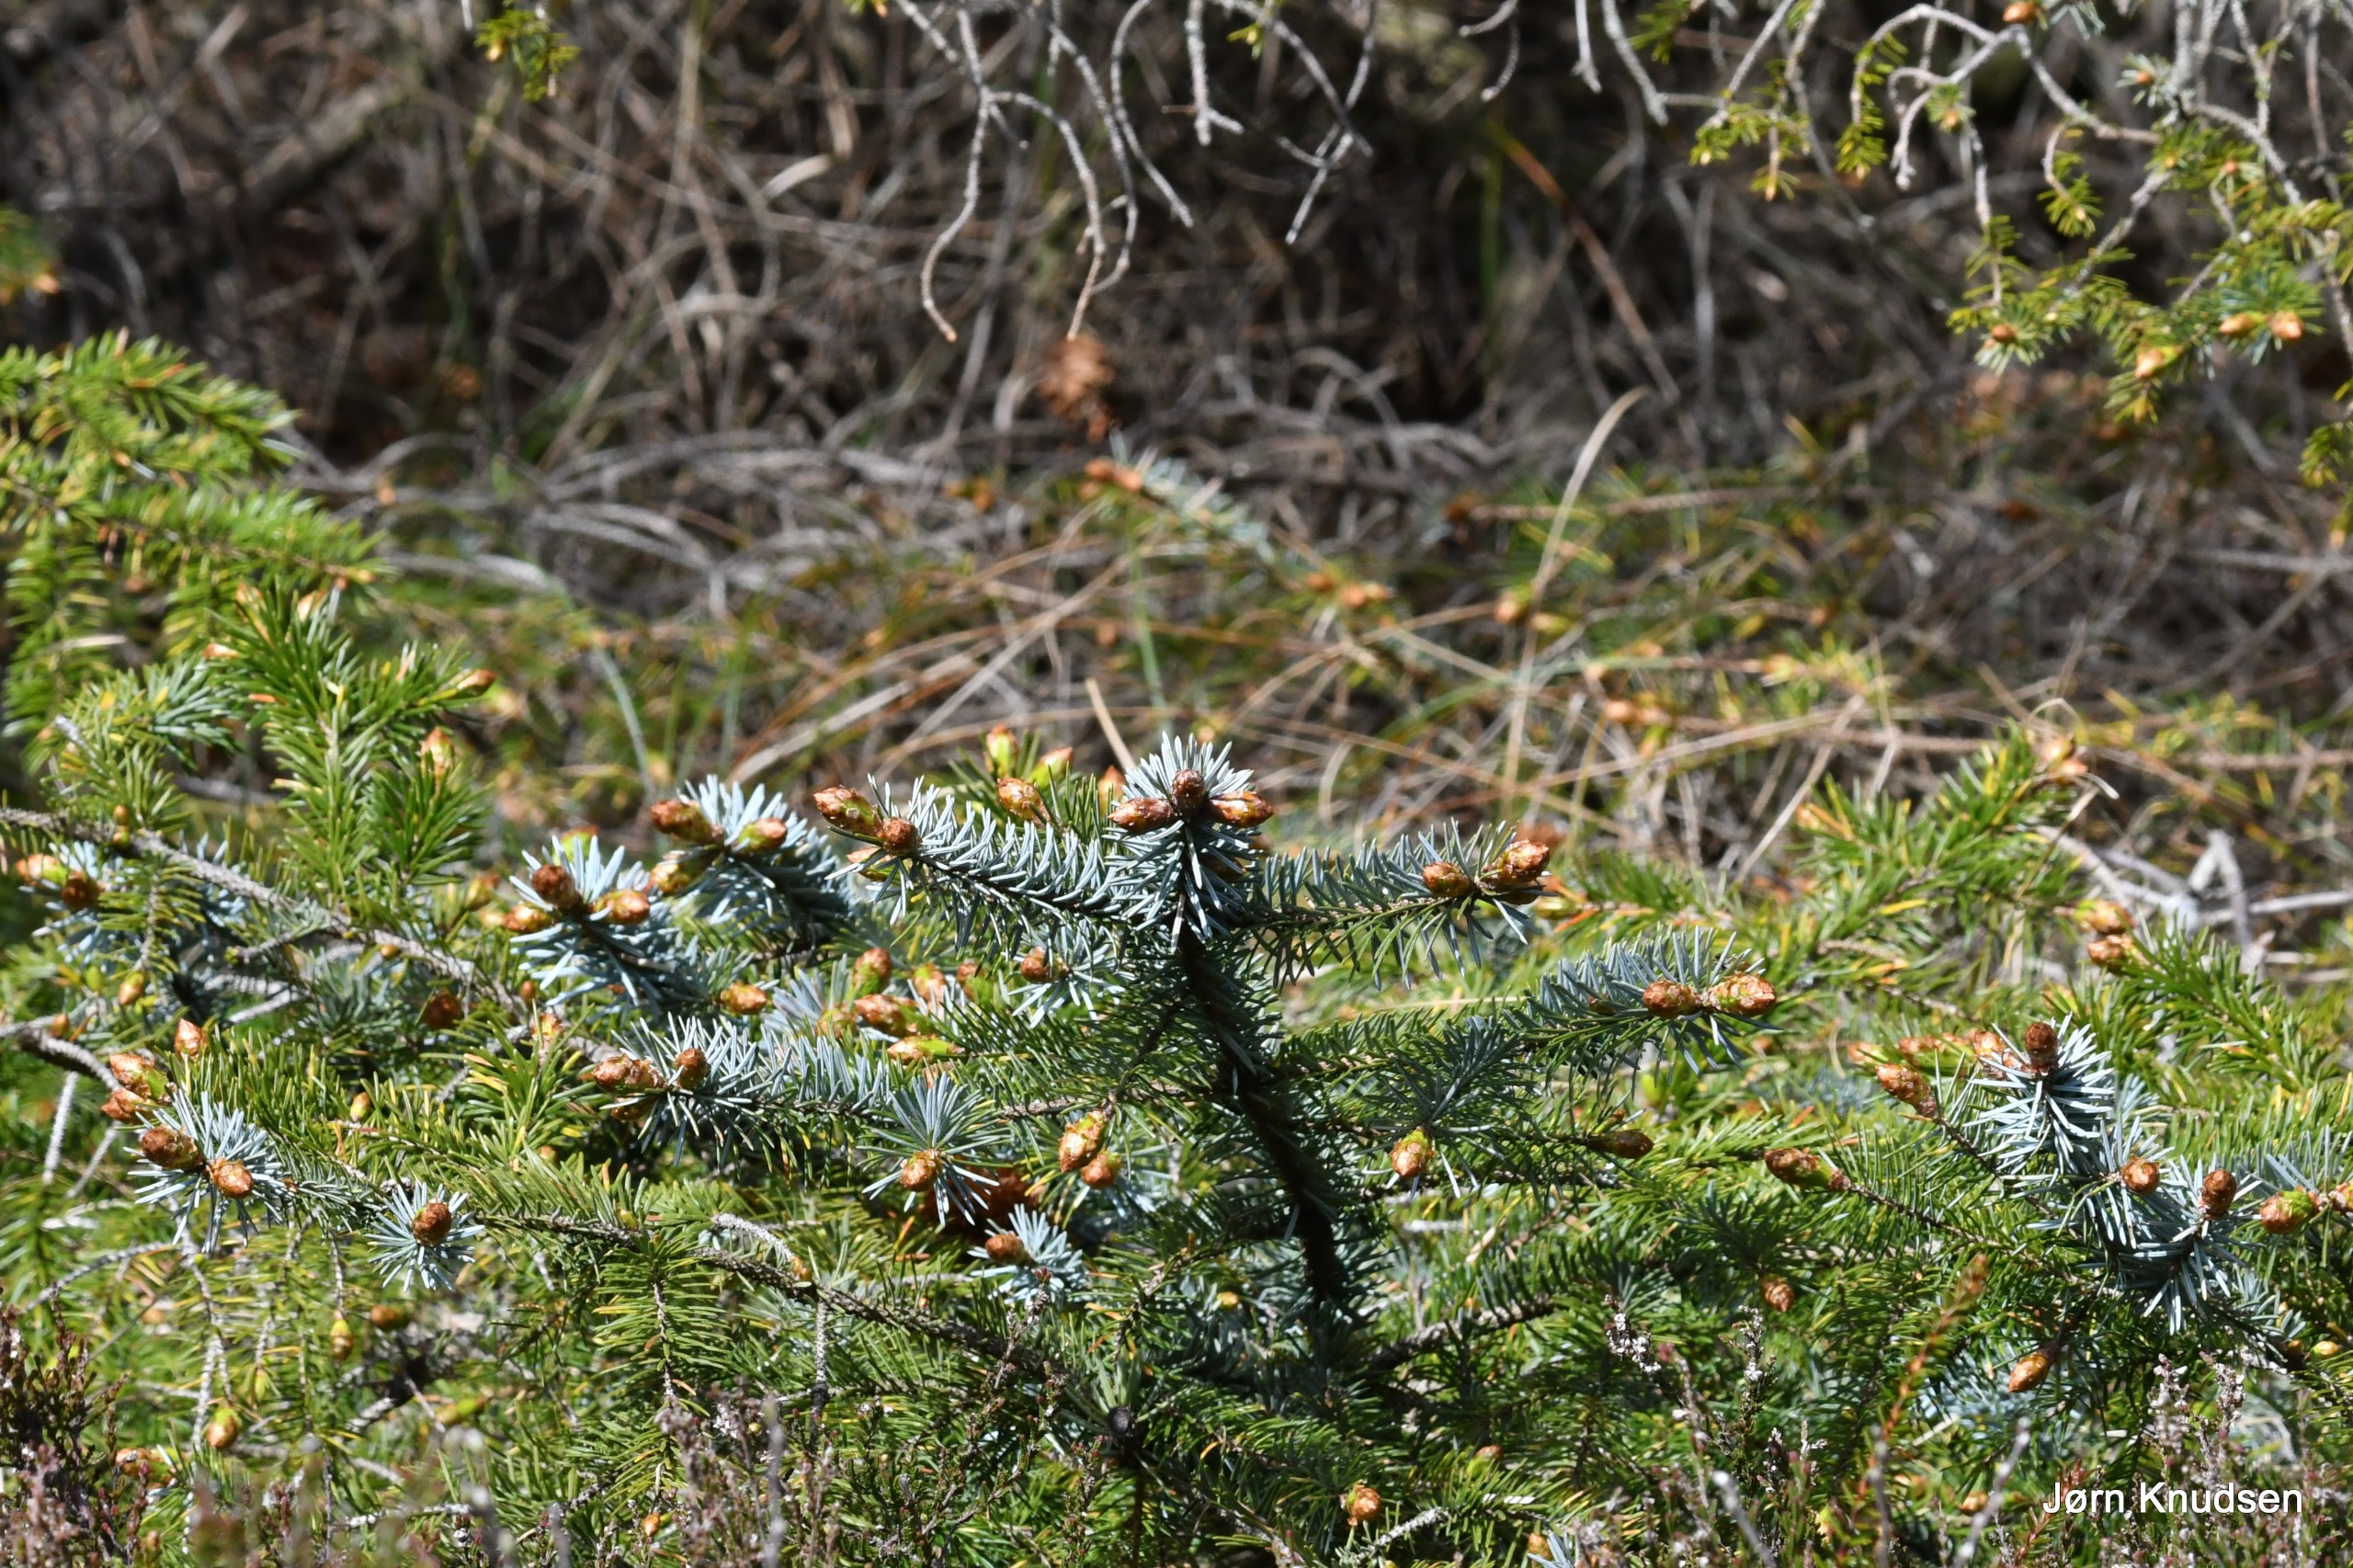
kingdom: Plantae
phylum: Tracheophyta
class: Pinopsida
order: Pinales
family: Pinaceae
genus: Picea
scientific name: Picea pungens
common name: Blå-gran
